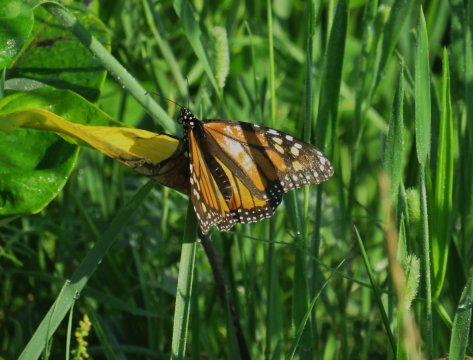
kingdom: Animalia
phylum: Arthropoda
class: Insecta
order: Lepidoptera
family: Nymphalidae
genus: Danaus
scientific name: Danaus plexippus
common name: Monarch
